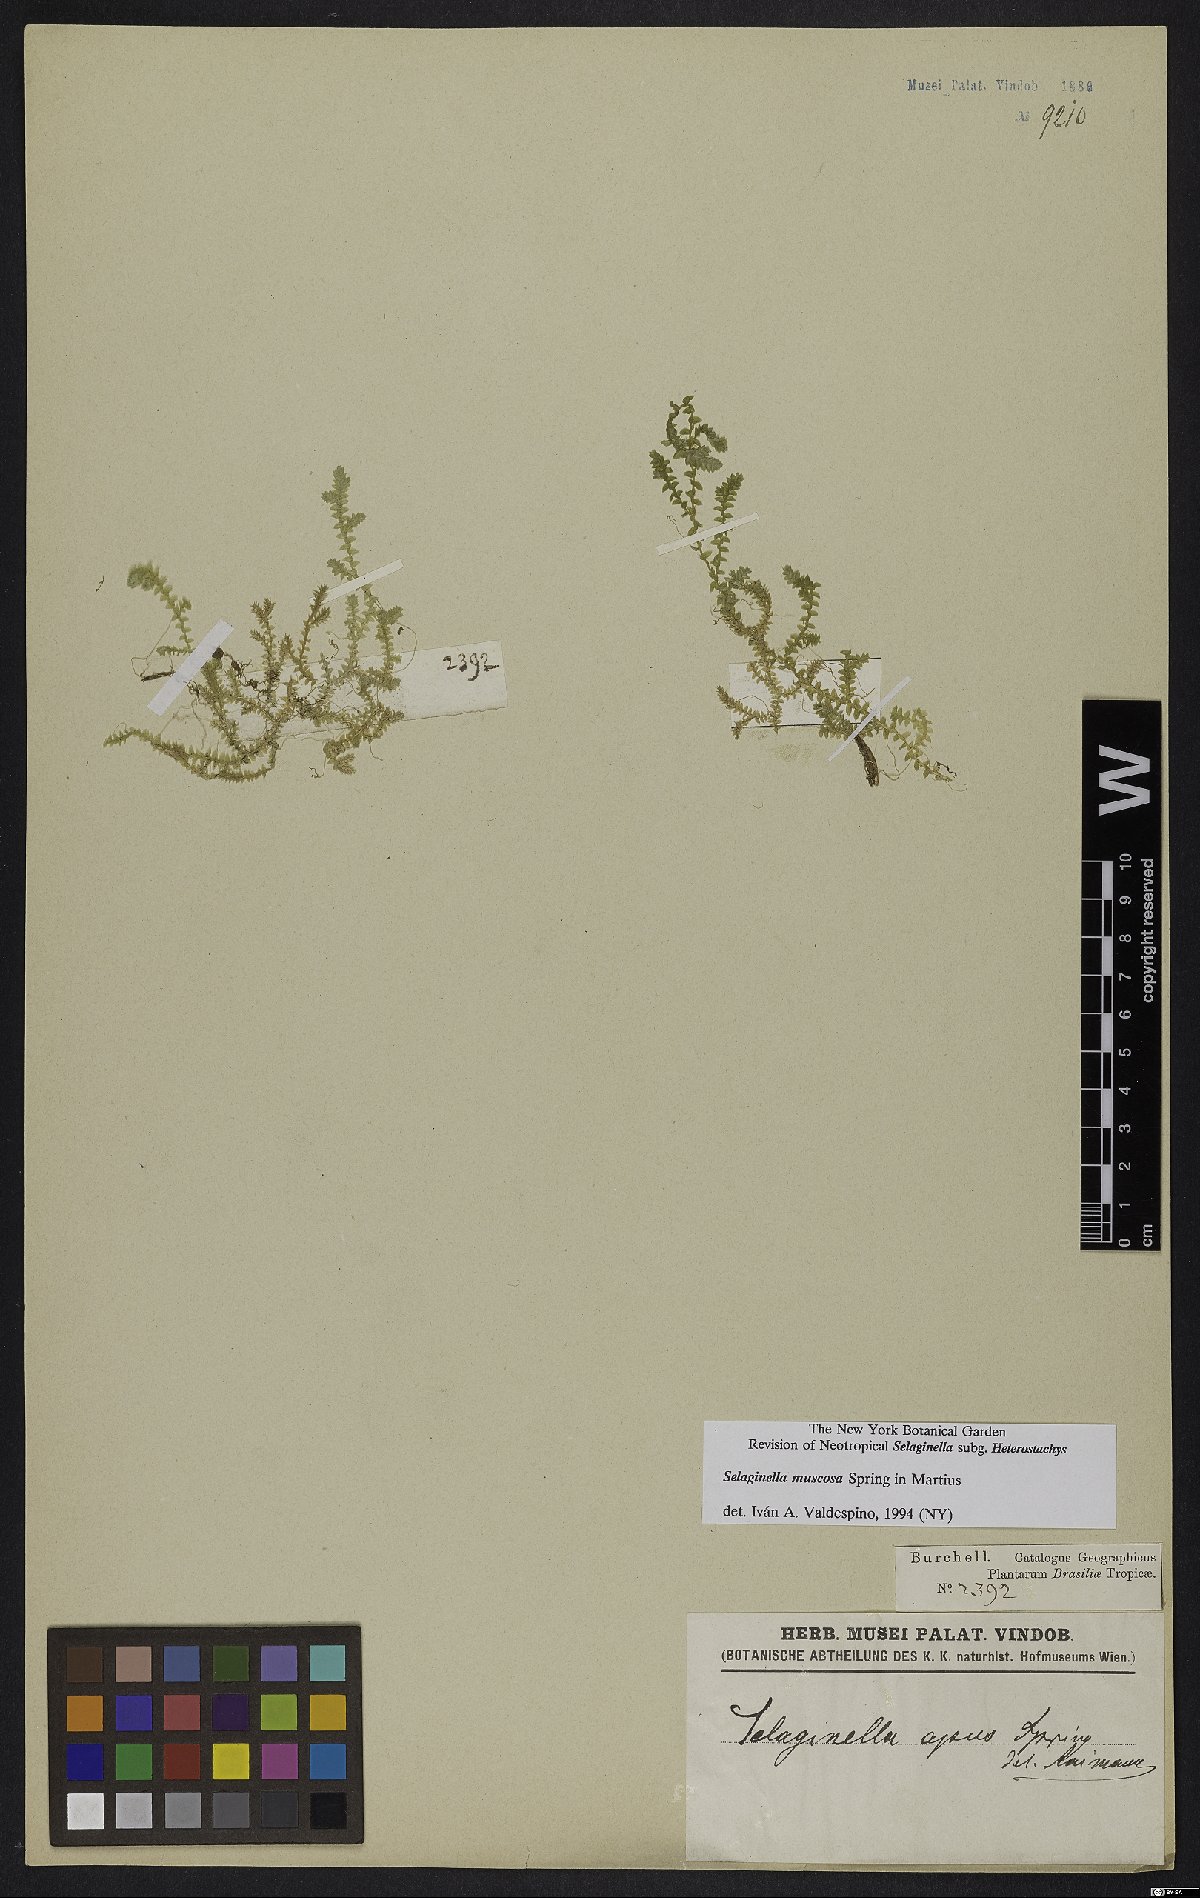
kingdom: Plantae
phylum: Tracheophyta
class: Lycopodiopsida
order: Selaginellales
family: Selaginellaceae
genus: Selaginella
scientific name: Selaginella muscosa
